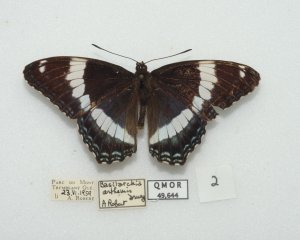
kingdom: Animalia
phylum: Arthropoda
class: Insecta
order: Lepidoptera
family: Nymphalidae
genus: Limenitis
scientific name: Limenitis arthemis
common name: Red-spotted Admiral
